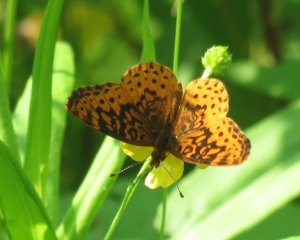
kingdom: Animalia
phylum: Arthropoda
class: Insecta
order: Lepidoptera
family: Nymphalidae
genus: Clossiana
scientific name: Clossiana toddi
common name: Meadow Fritillary
